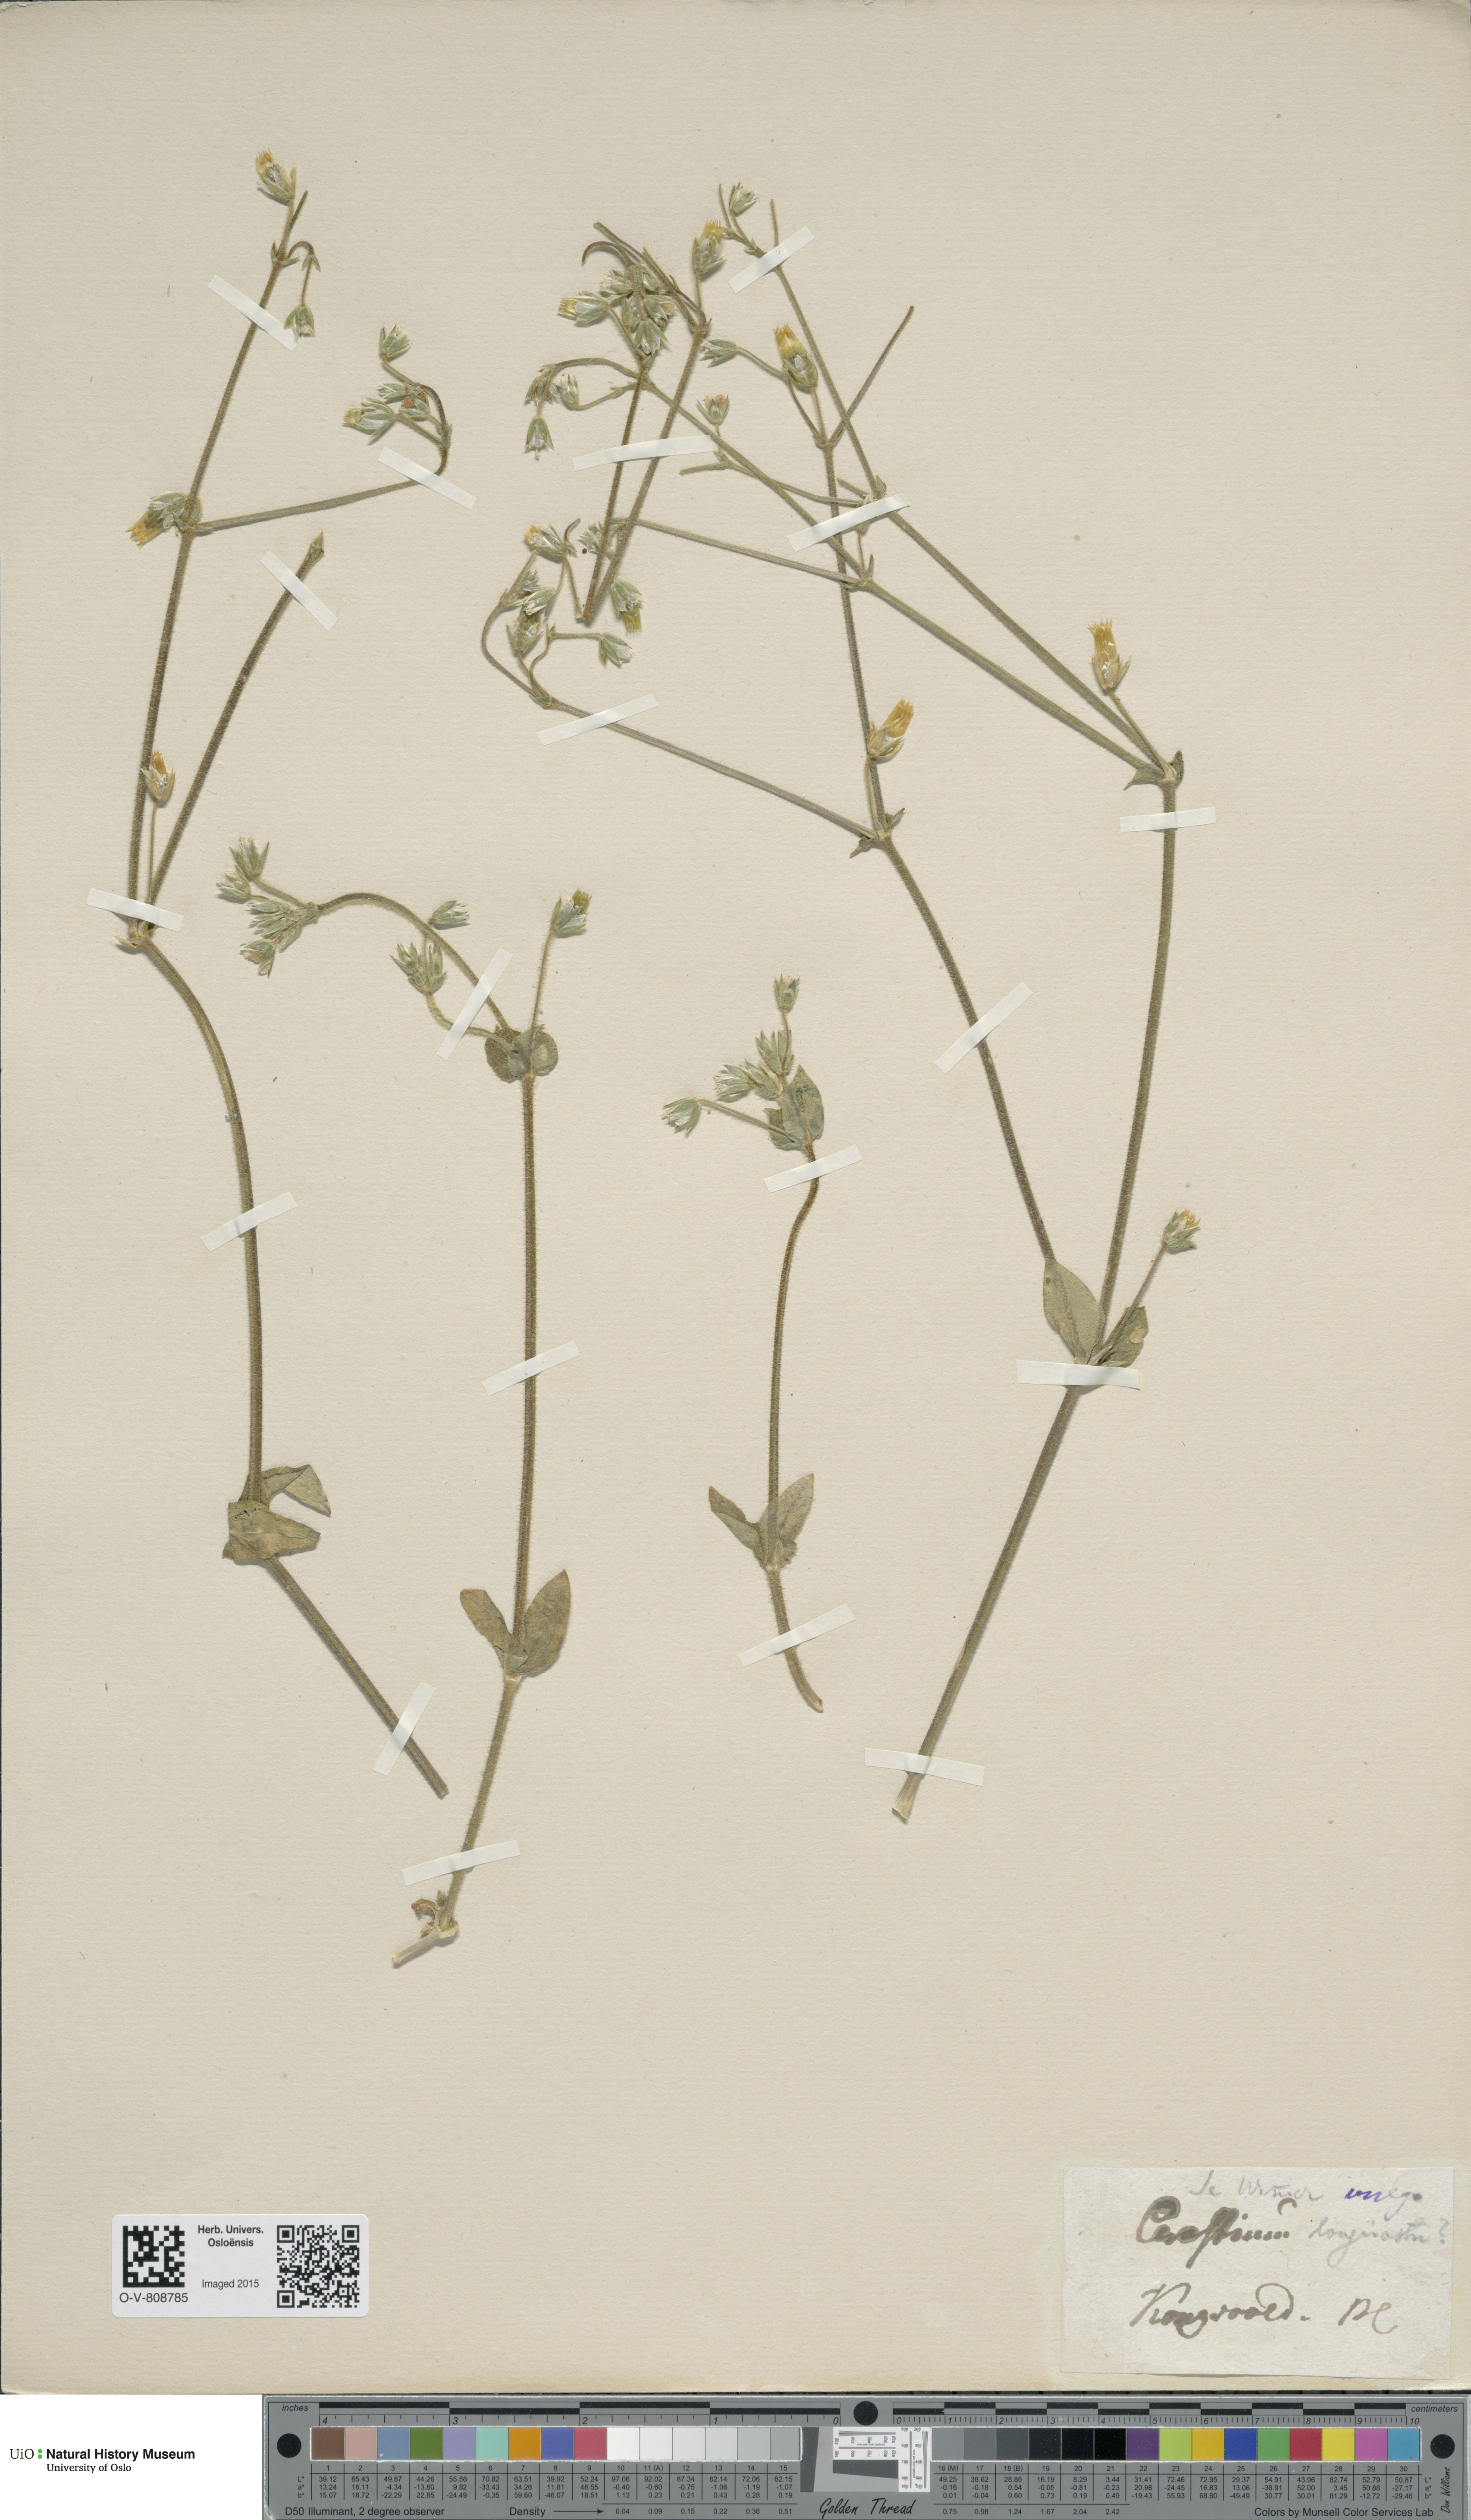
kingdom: Plantae
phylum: Tracheophyta
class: Magnoliopsida
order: Caryophyllales
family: Caryophyllaceae
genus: Cerastium
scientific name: Cerastium holosteoides
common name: Big chickweed
